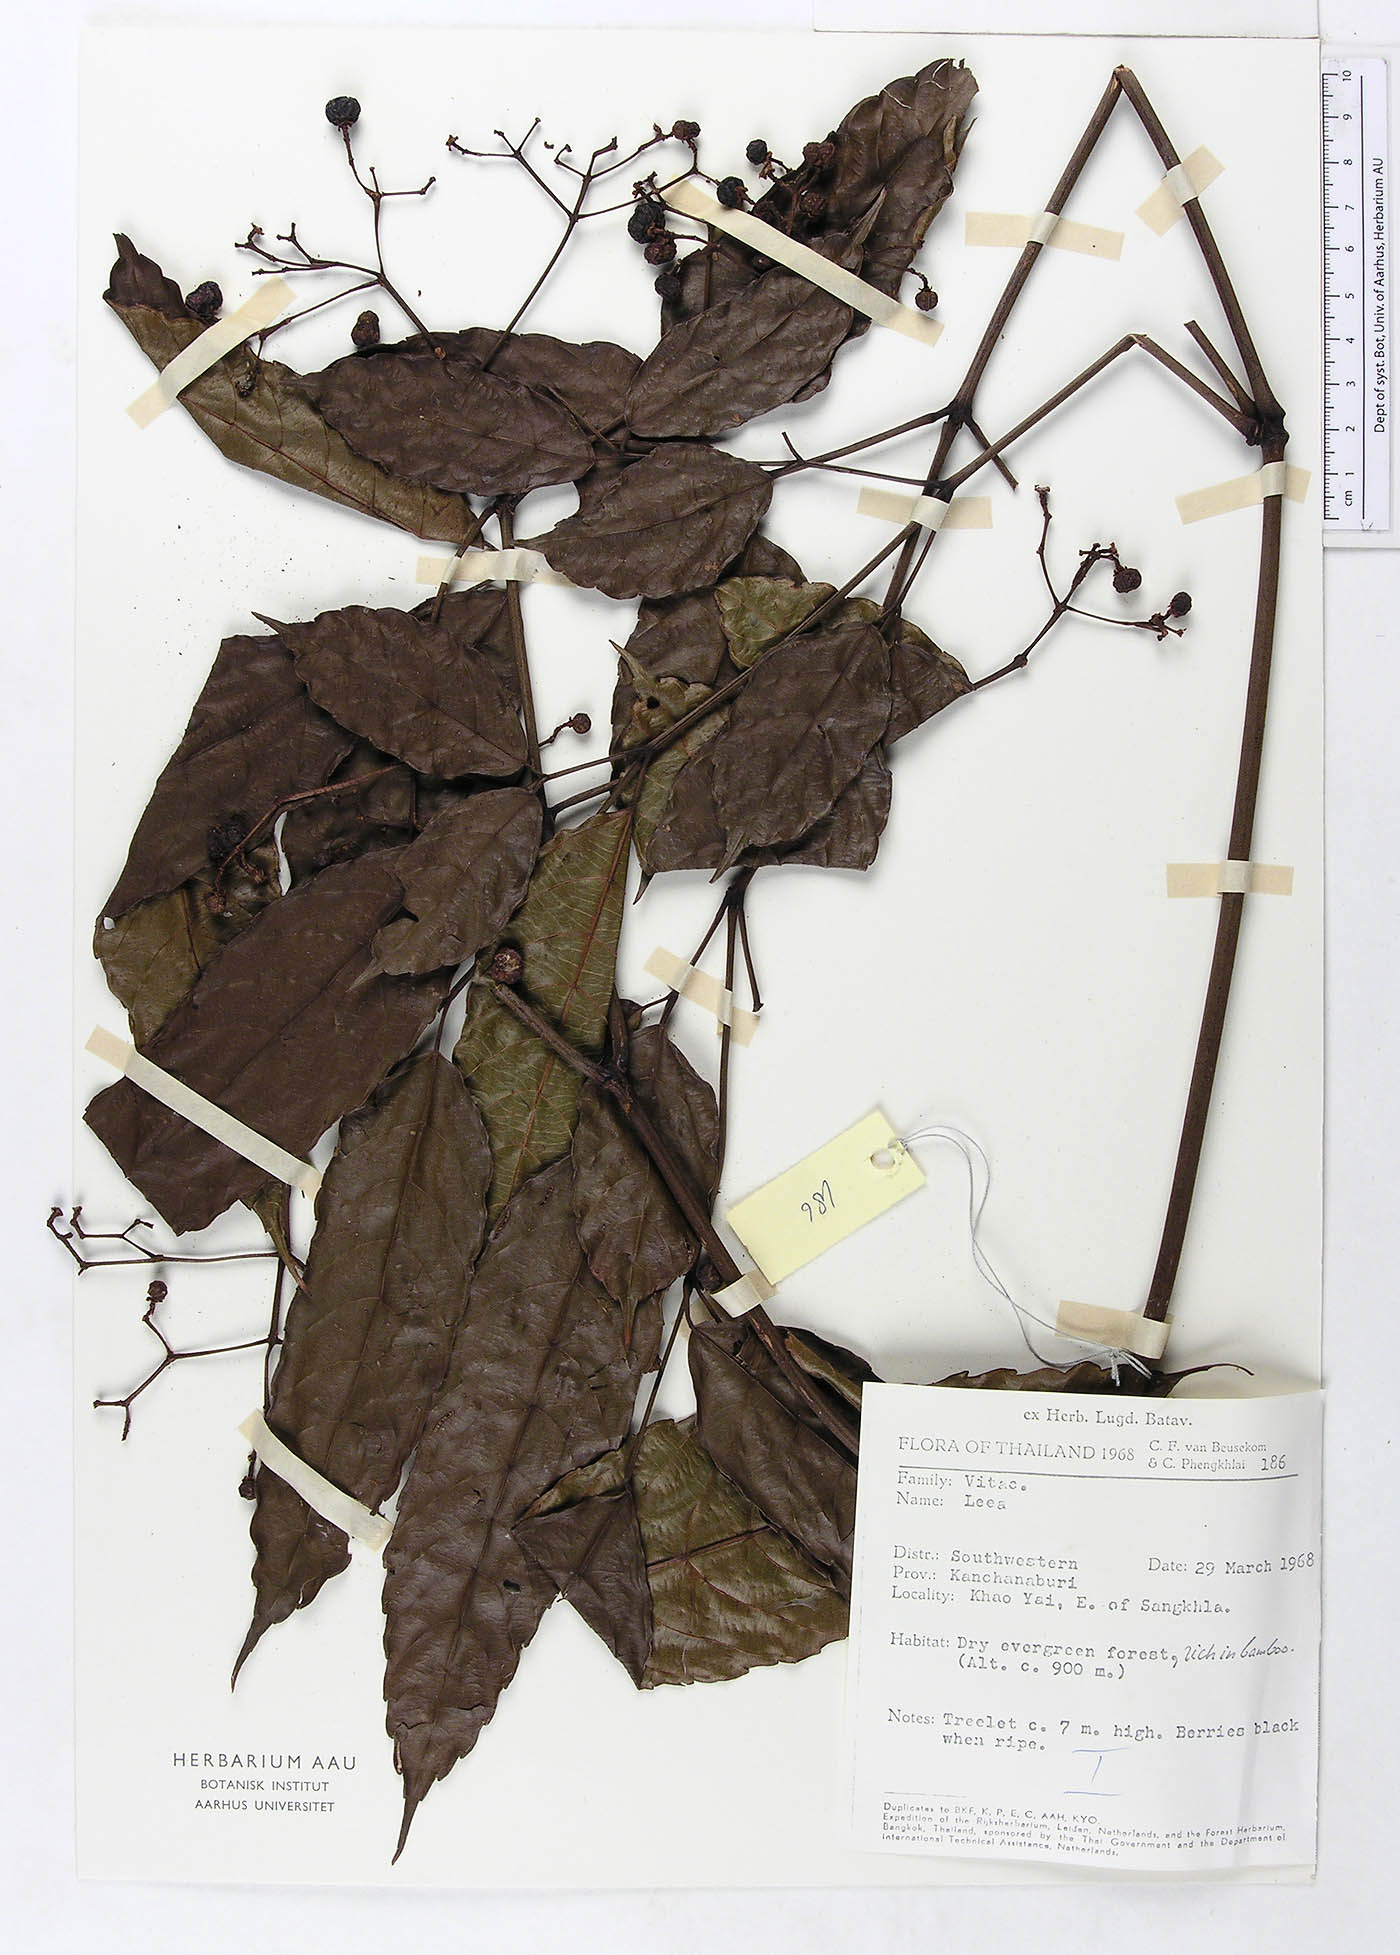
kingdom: Plantae
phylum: Tracheophyta
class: Magnoliopsida
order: Vitales
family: Vitaceae
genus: Leea
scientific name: Leea indica
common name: Bandicoot-berry
